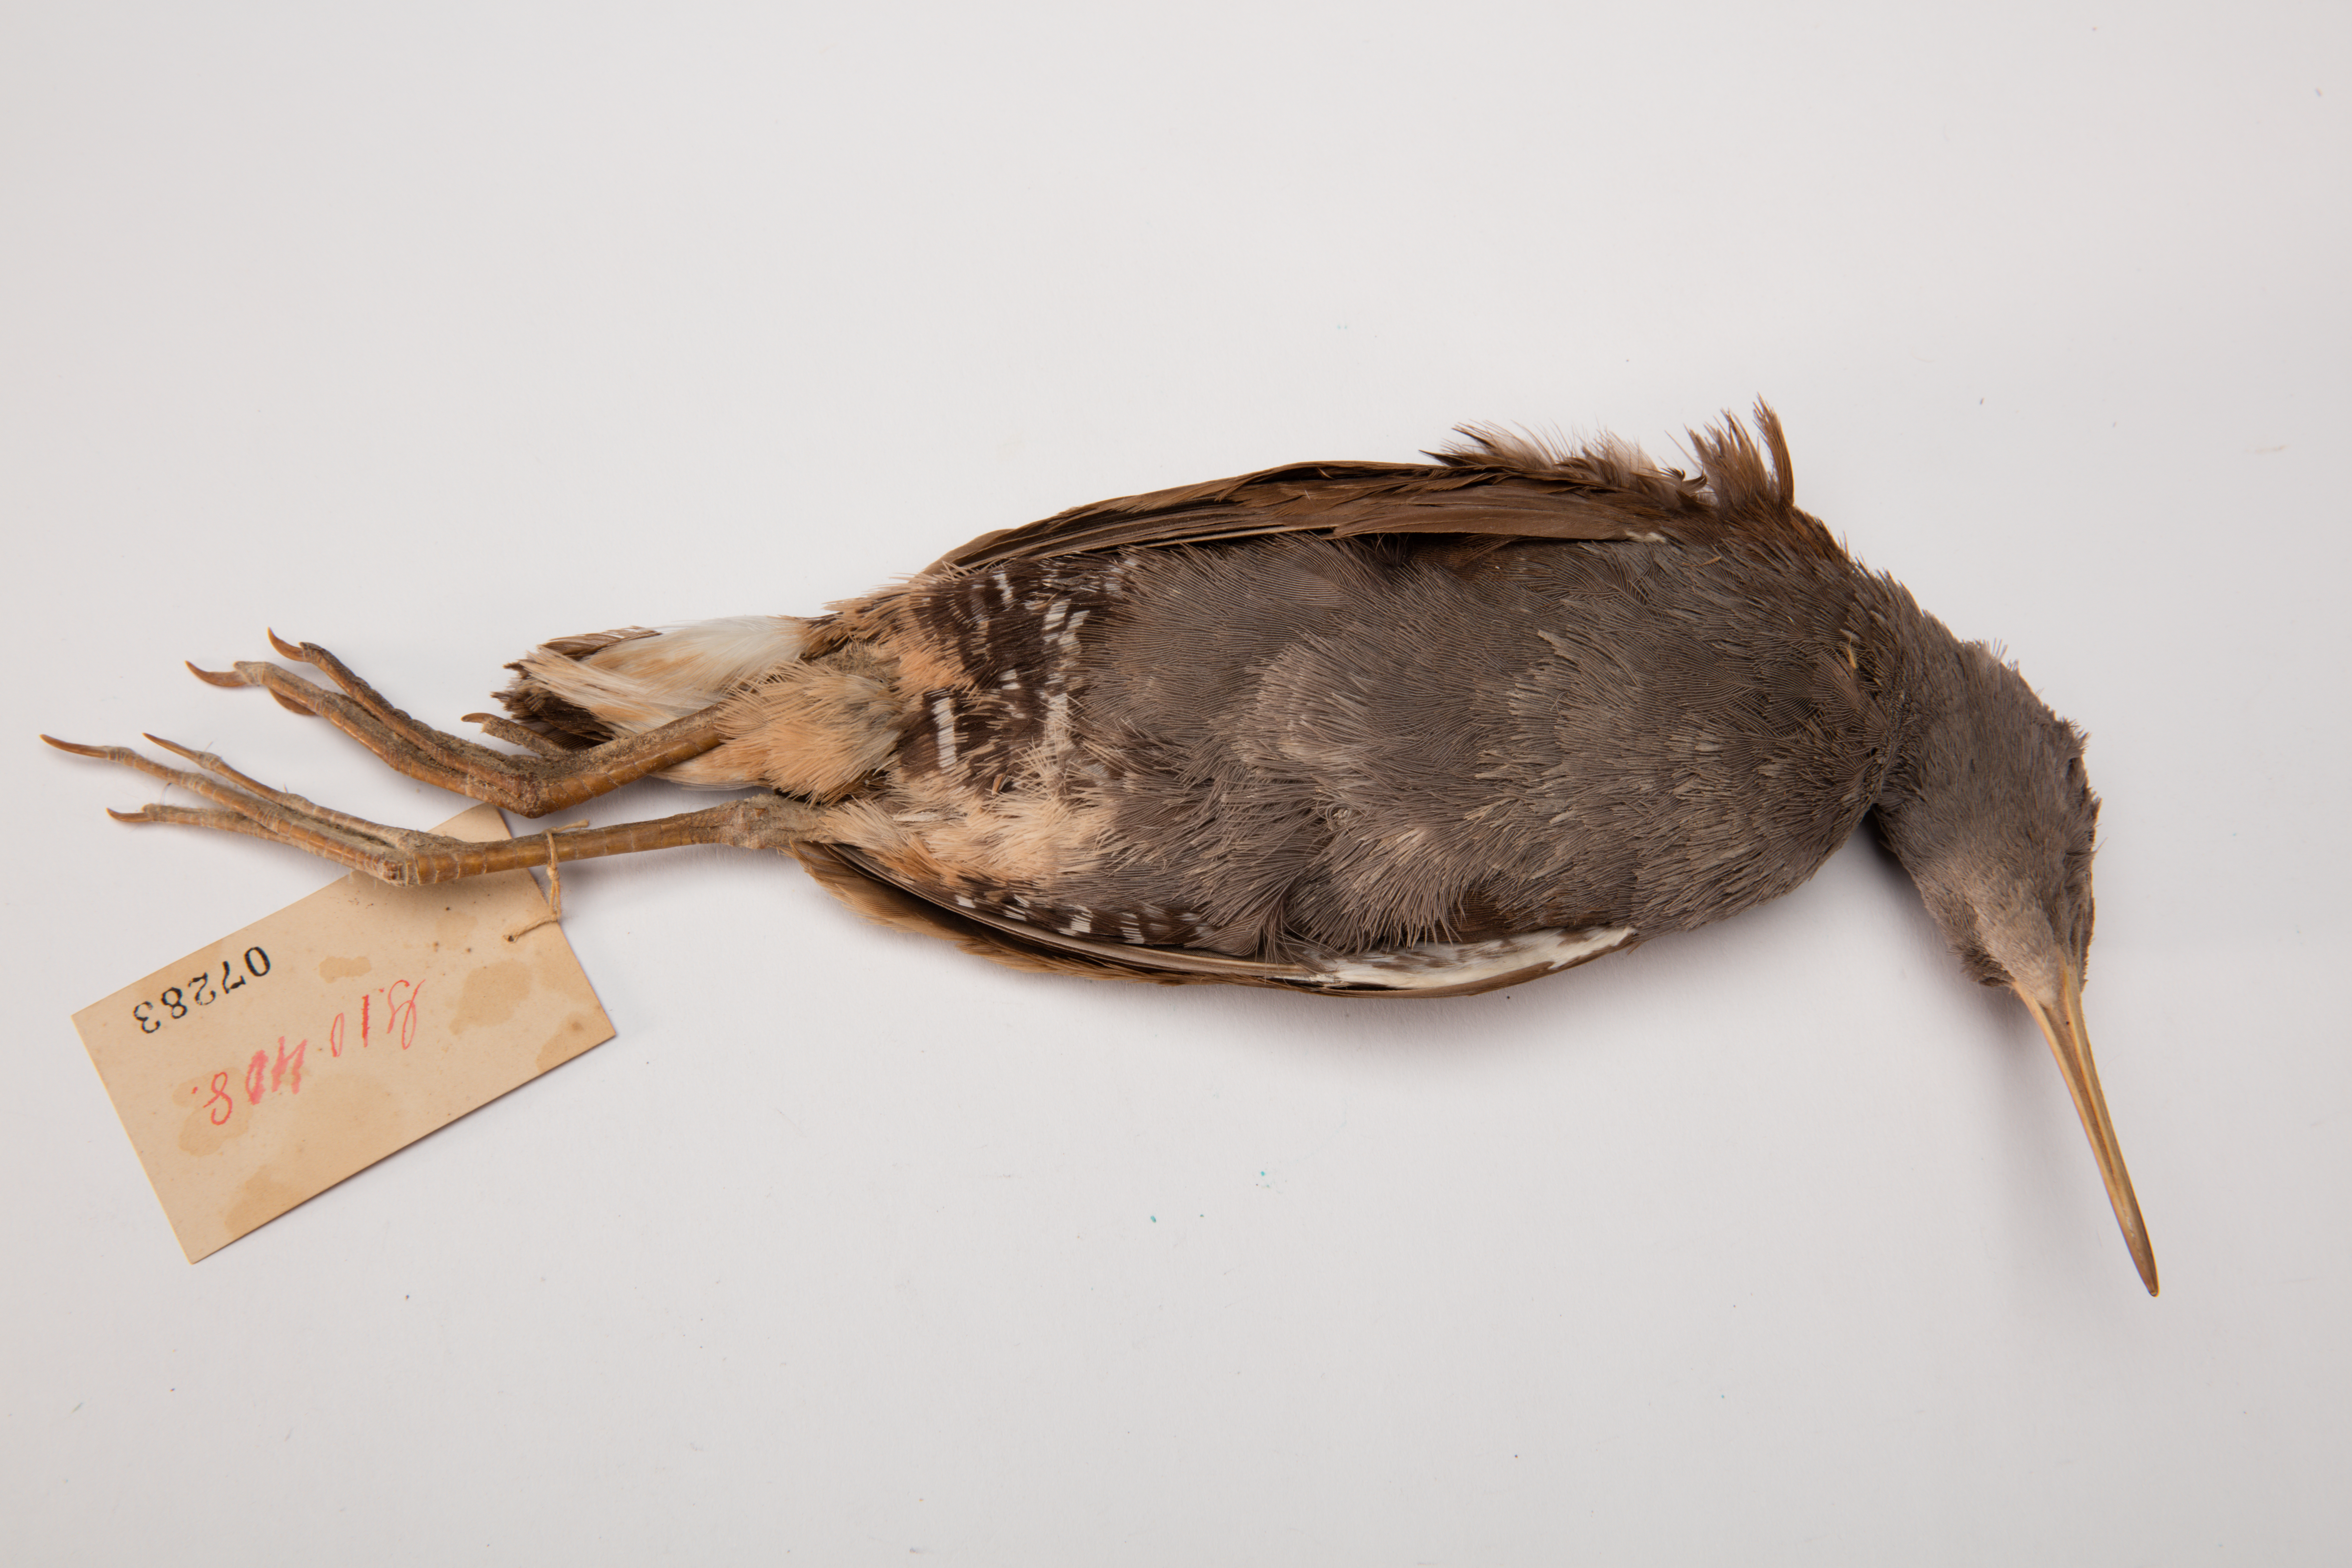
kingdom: Animalia
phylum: Chordata
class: Aves
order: Gruiformes
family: Rallidae
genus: Rallus
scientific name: Rallus aquaticus
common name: Water rail
